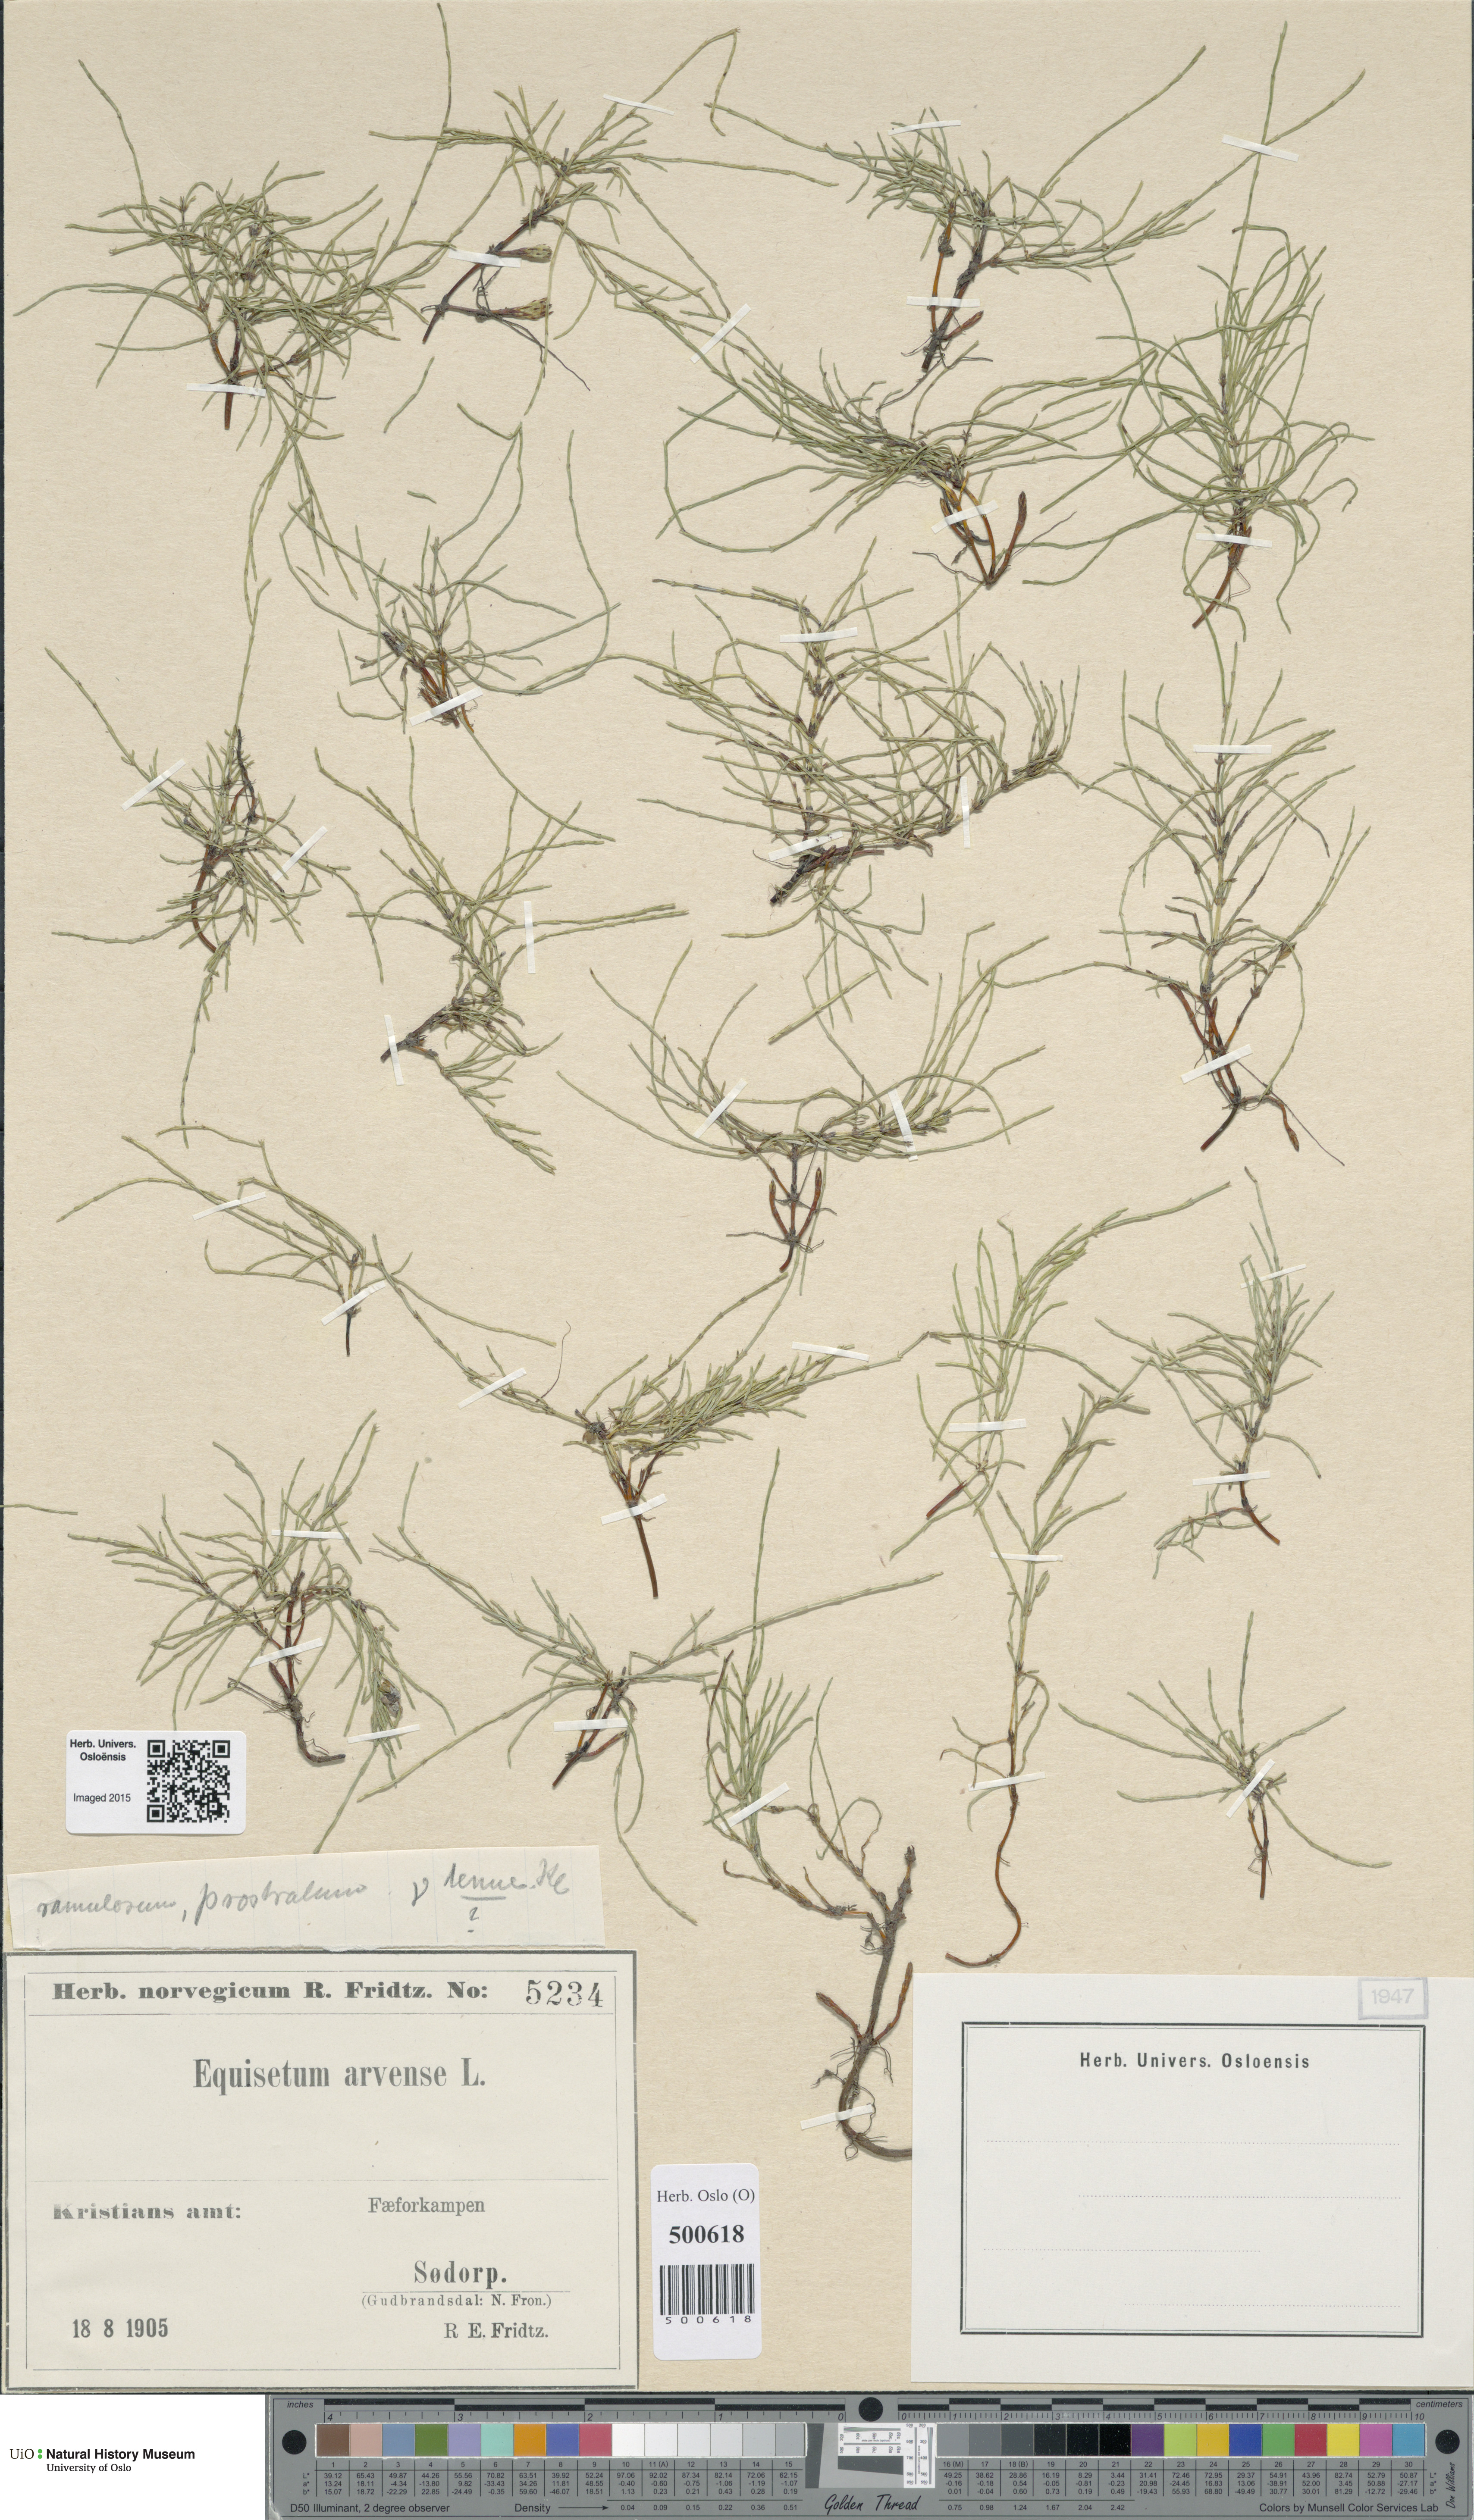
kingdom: Plantae
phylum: Tracheophyta
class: Polypodiopsida
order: Equisetales
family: Equisetaceae
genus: Equisetum
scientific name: Equisetum arvense
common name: Field horsetail
